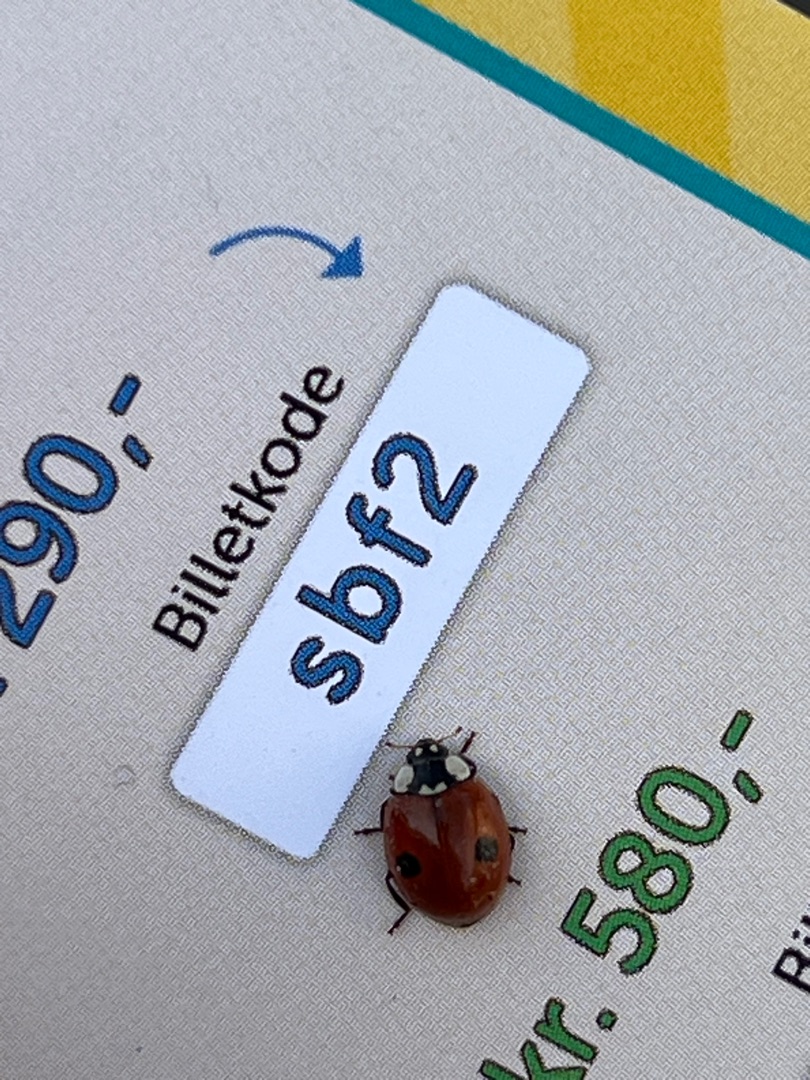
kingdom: Animalia
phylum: Arthropoda
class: Insecta
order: Coleoptera
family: Coccinellidae
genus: Adalia
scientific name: Adalia bipunctata
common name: Toplettet mariehøne
